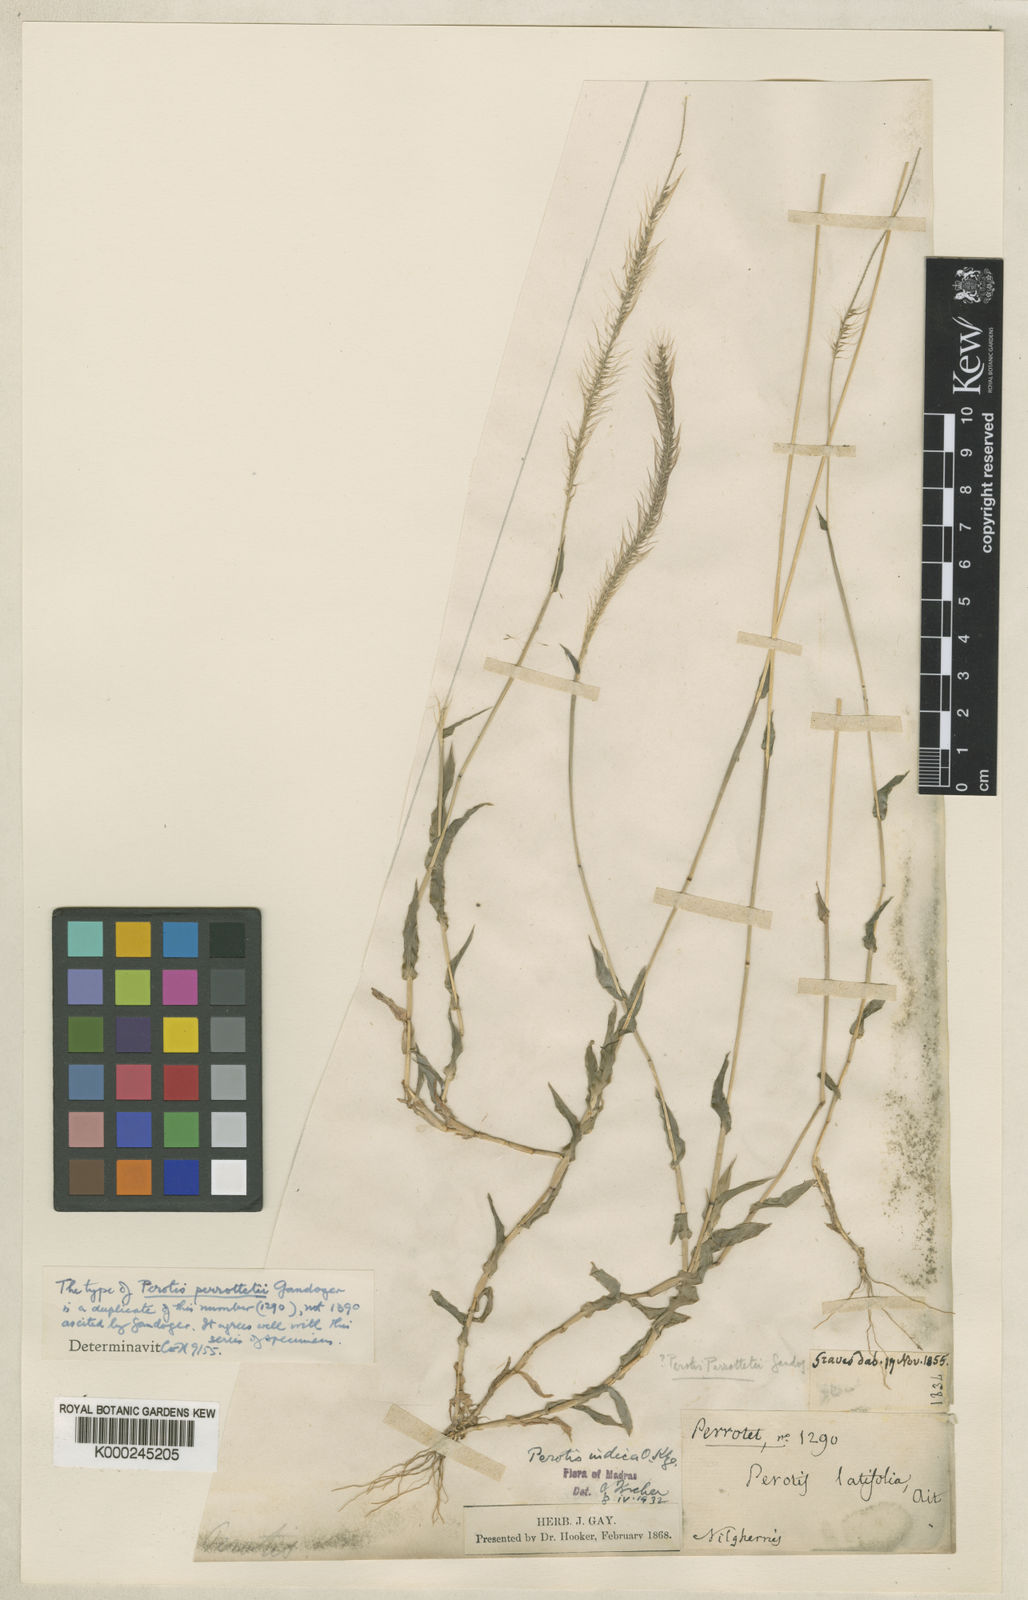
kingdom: Plantae
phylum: Tracheophyta
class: Liliopsida
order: Poales
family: Poaceae
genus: Perotis
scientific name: Perotis
